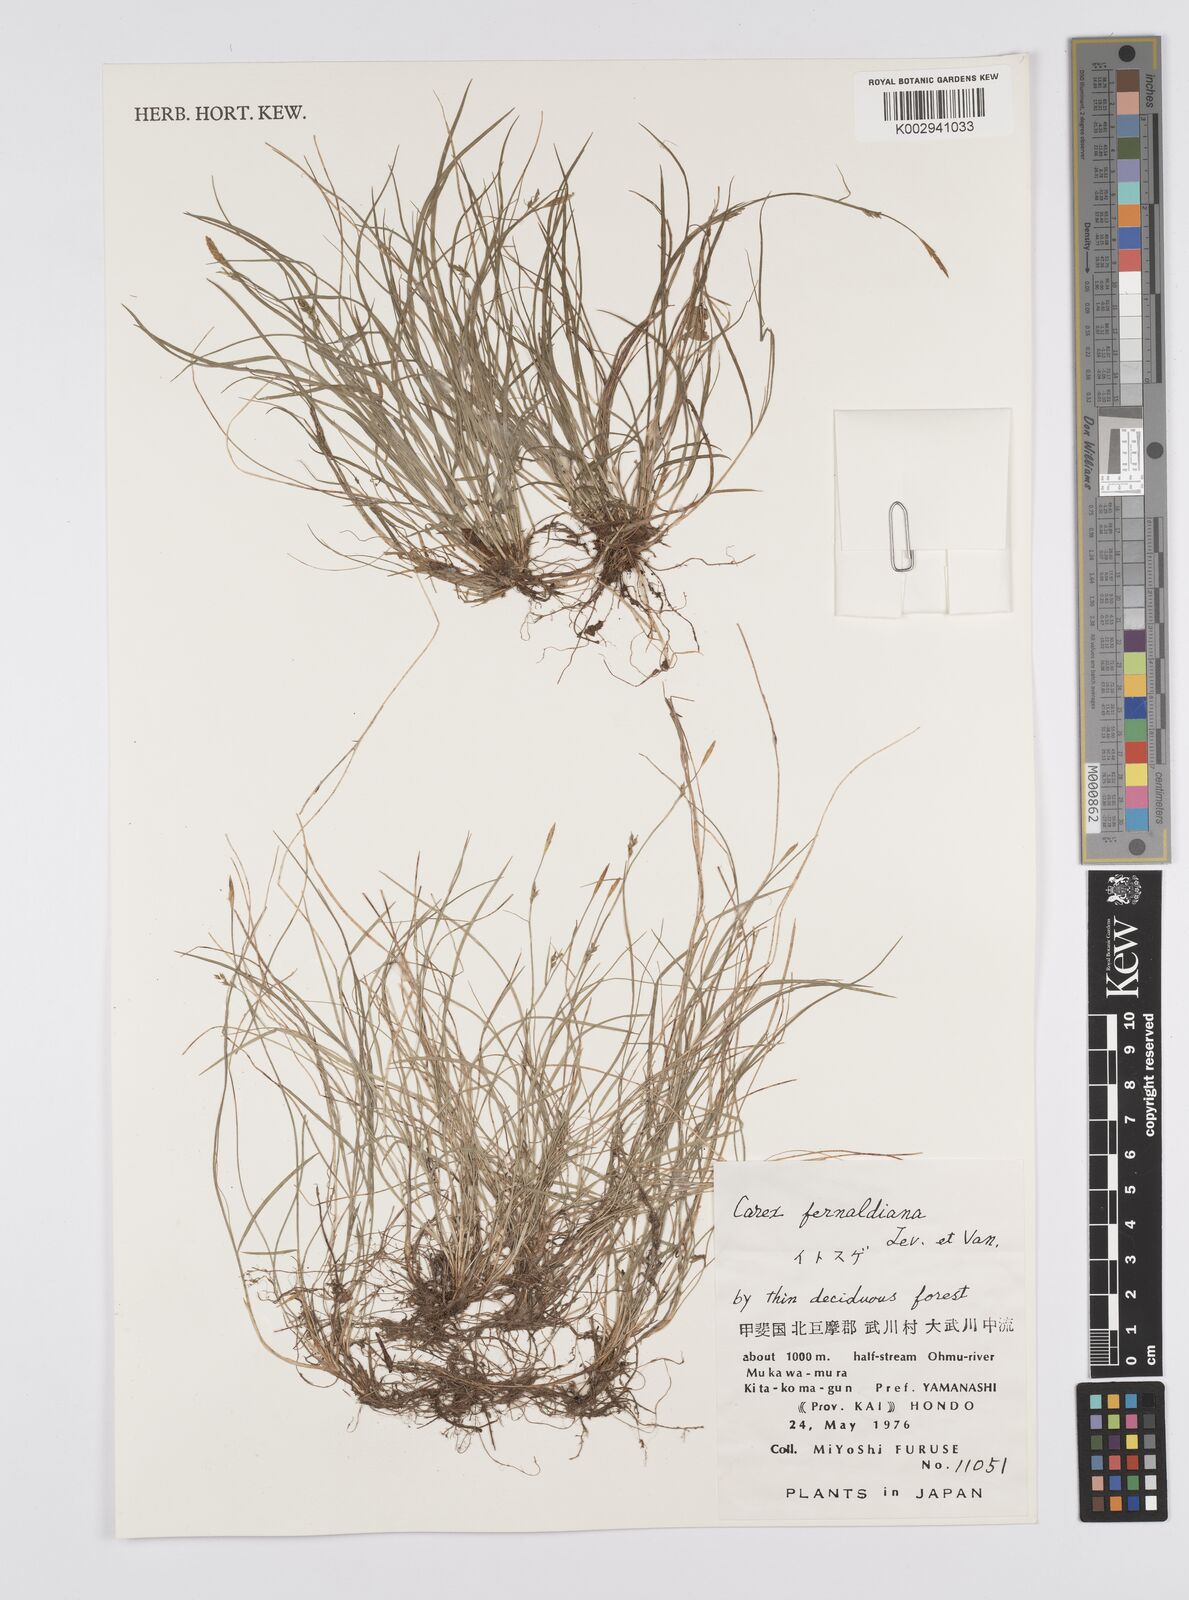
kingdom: Plantae
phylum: Tracheophyta
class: Liliopsida
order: Poales
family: Cyperaceae
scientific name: Cyperaceae
